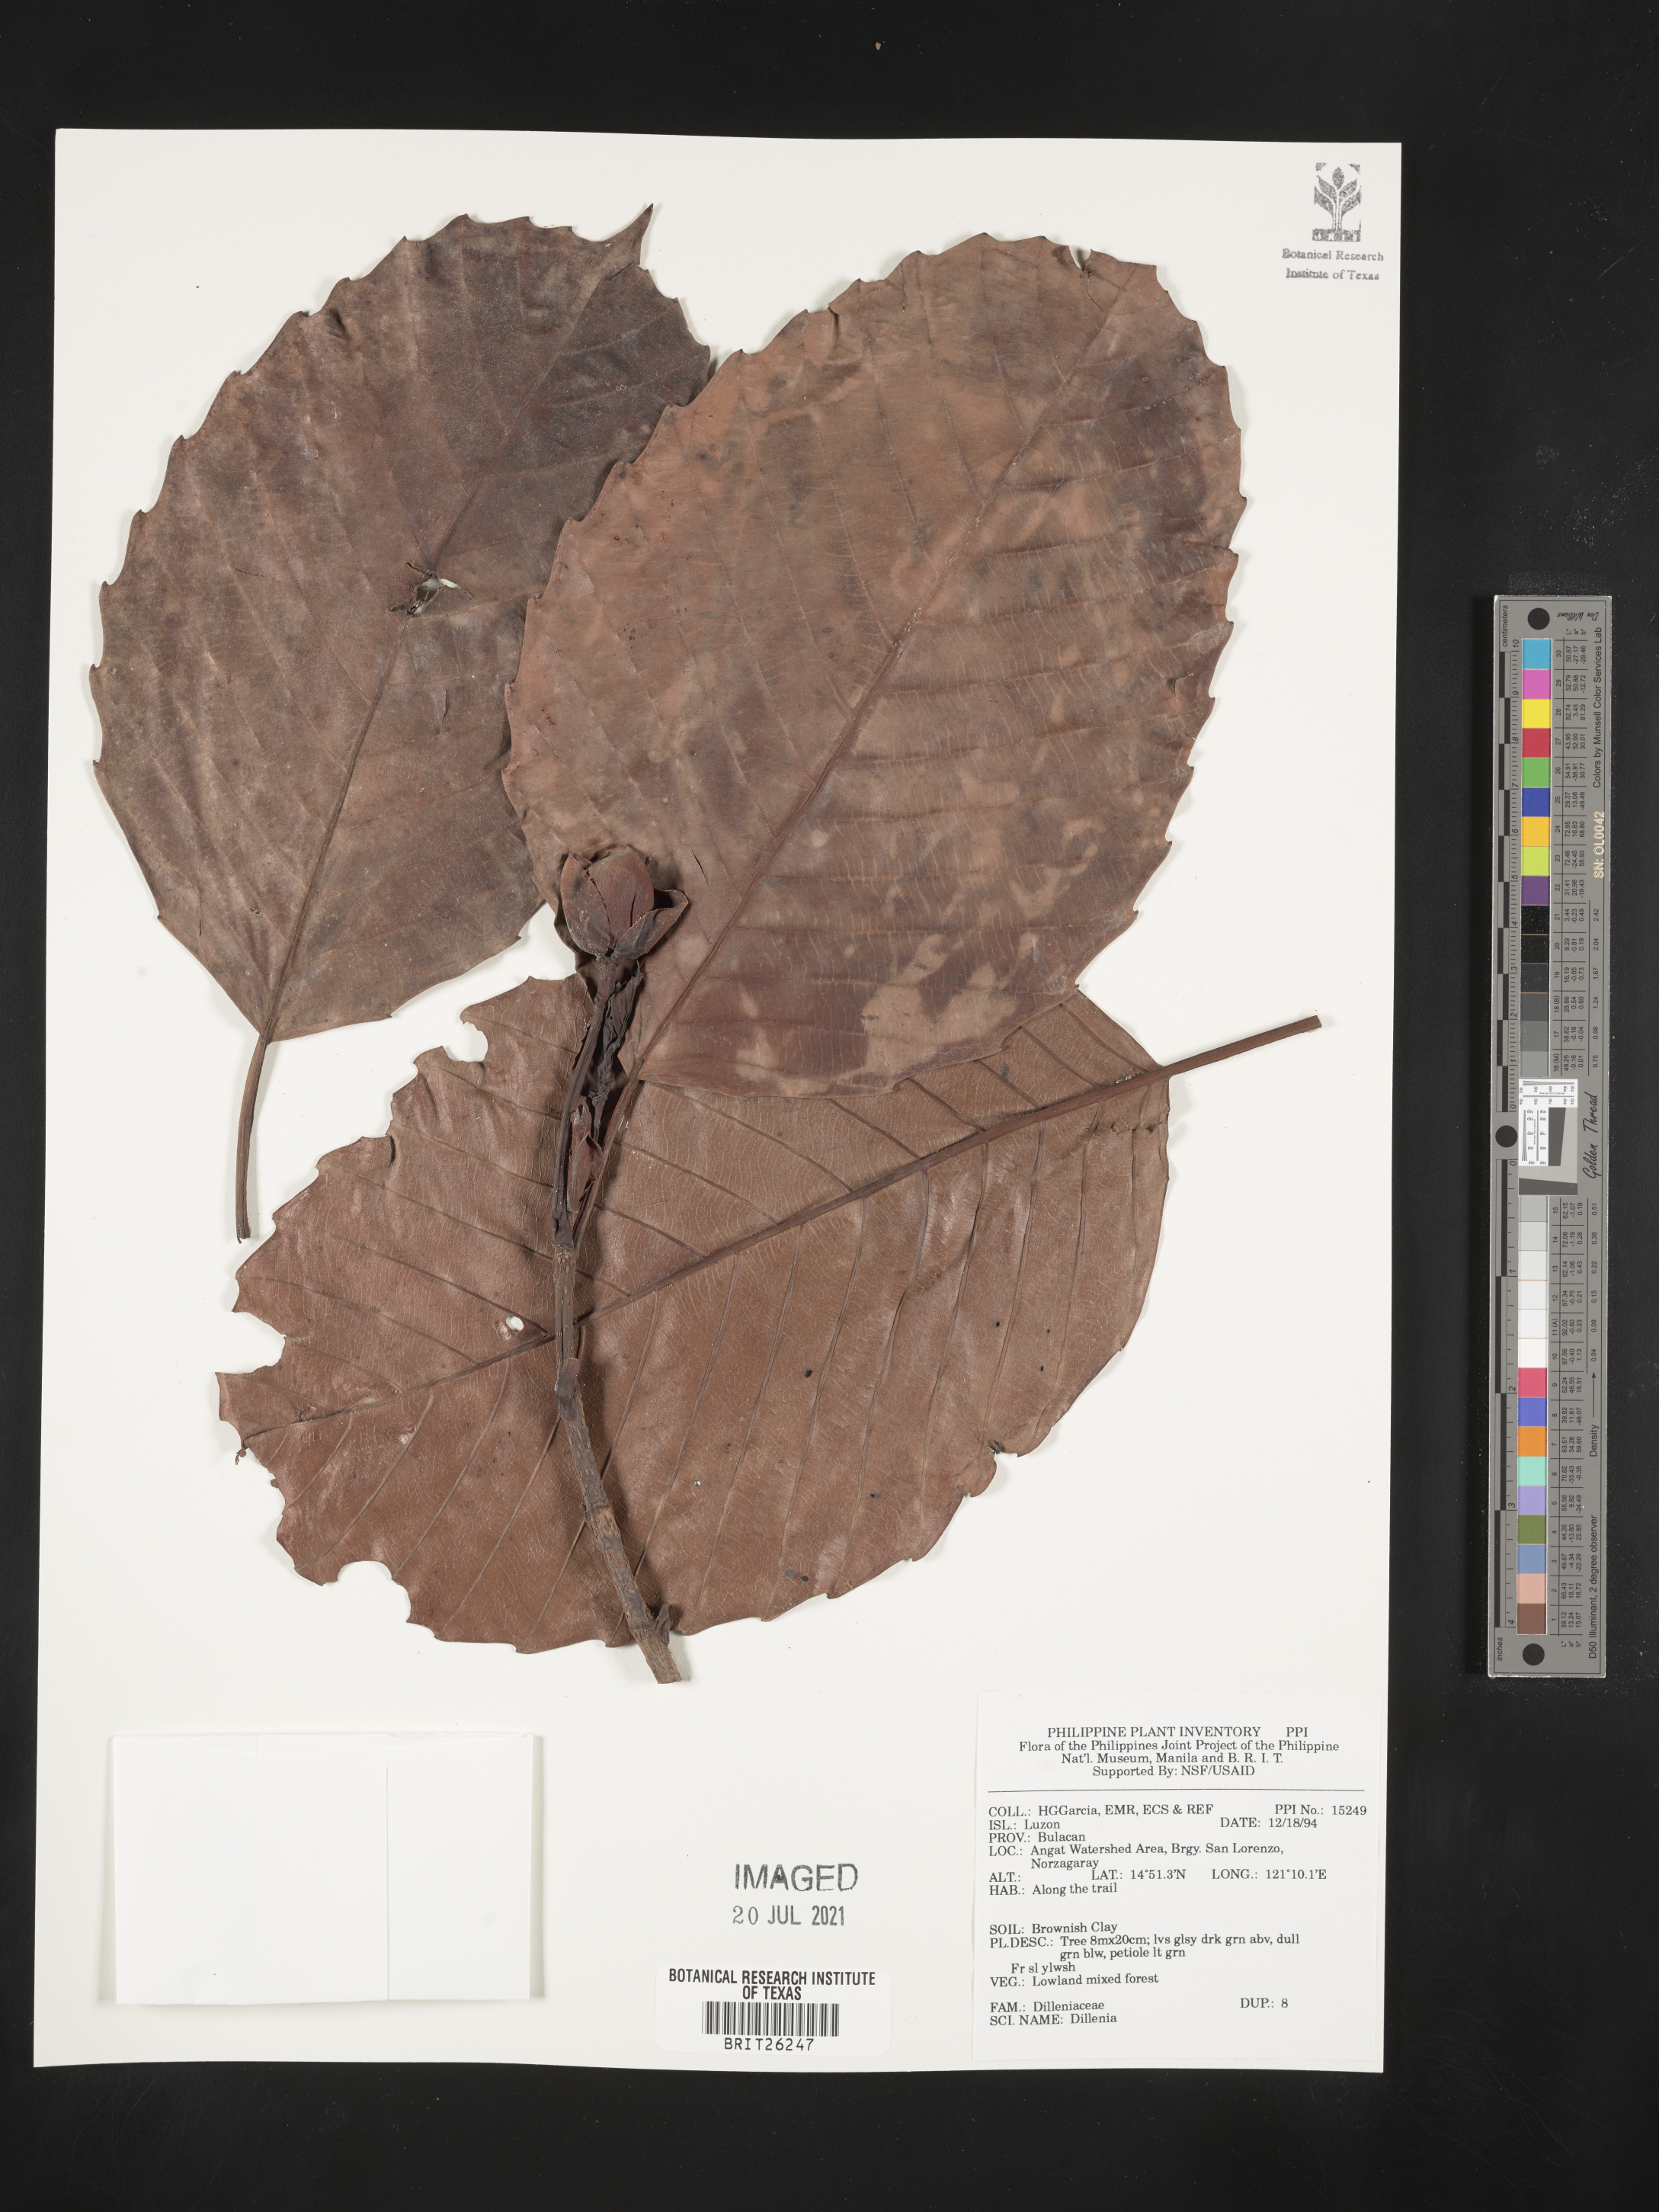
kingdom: Plantae
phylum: Tracheophyta
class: Magnoliopsida
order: Dilleniales
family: Dilleniaceae
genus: Dillenia
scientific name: Dillenia
